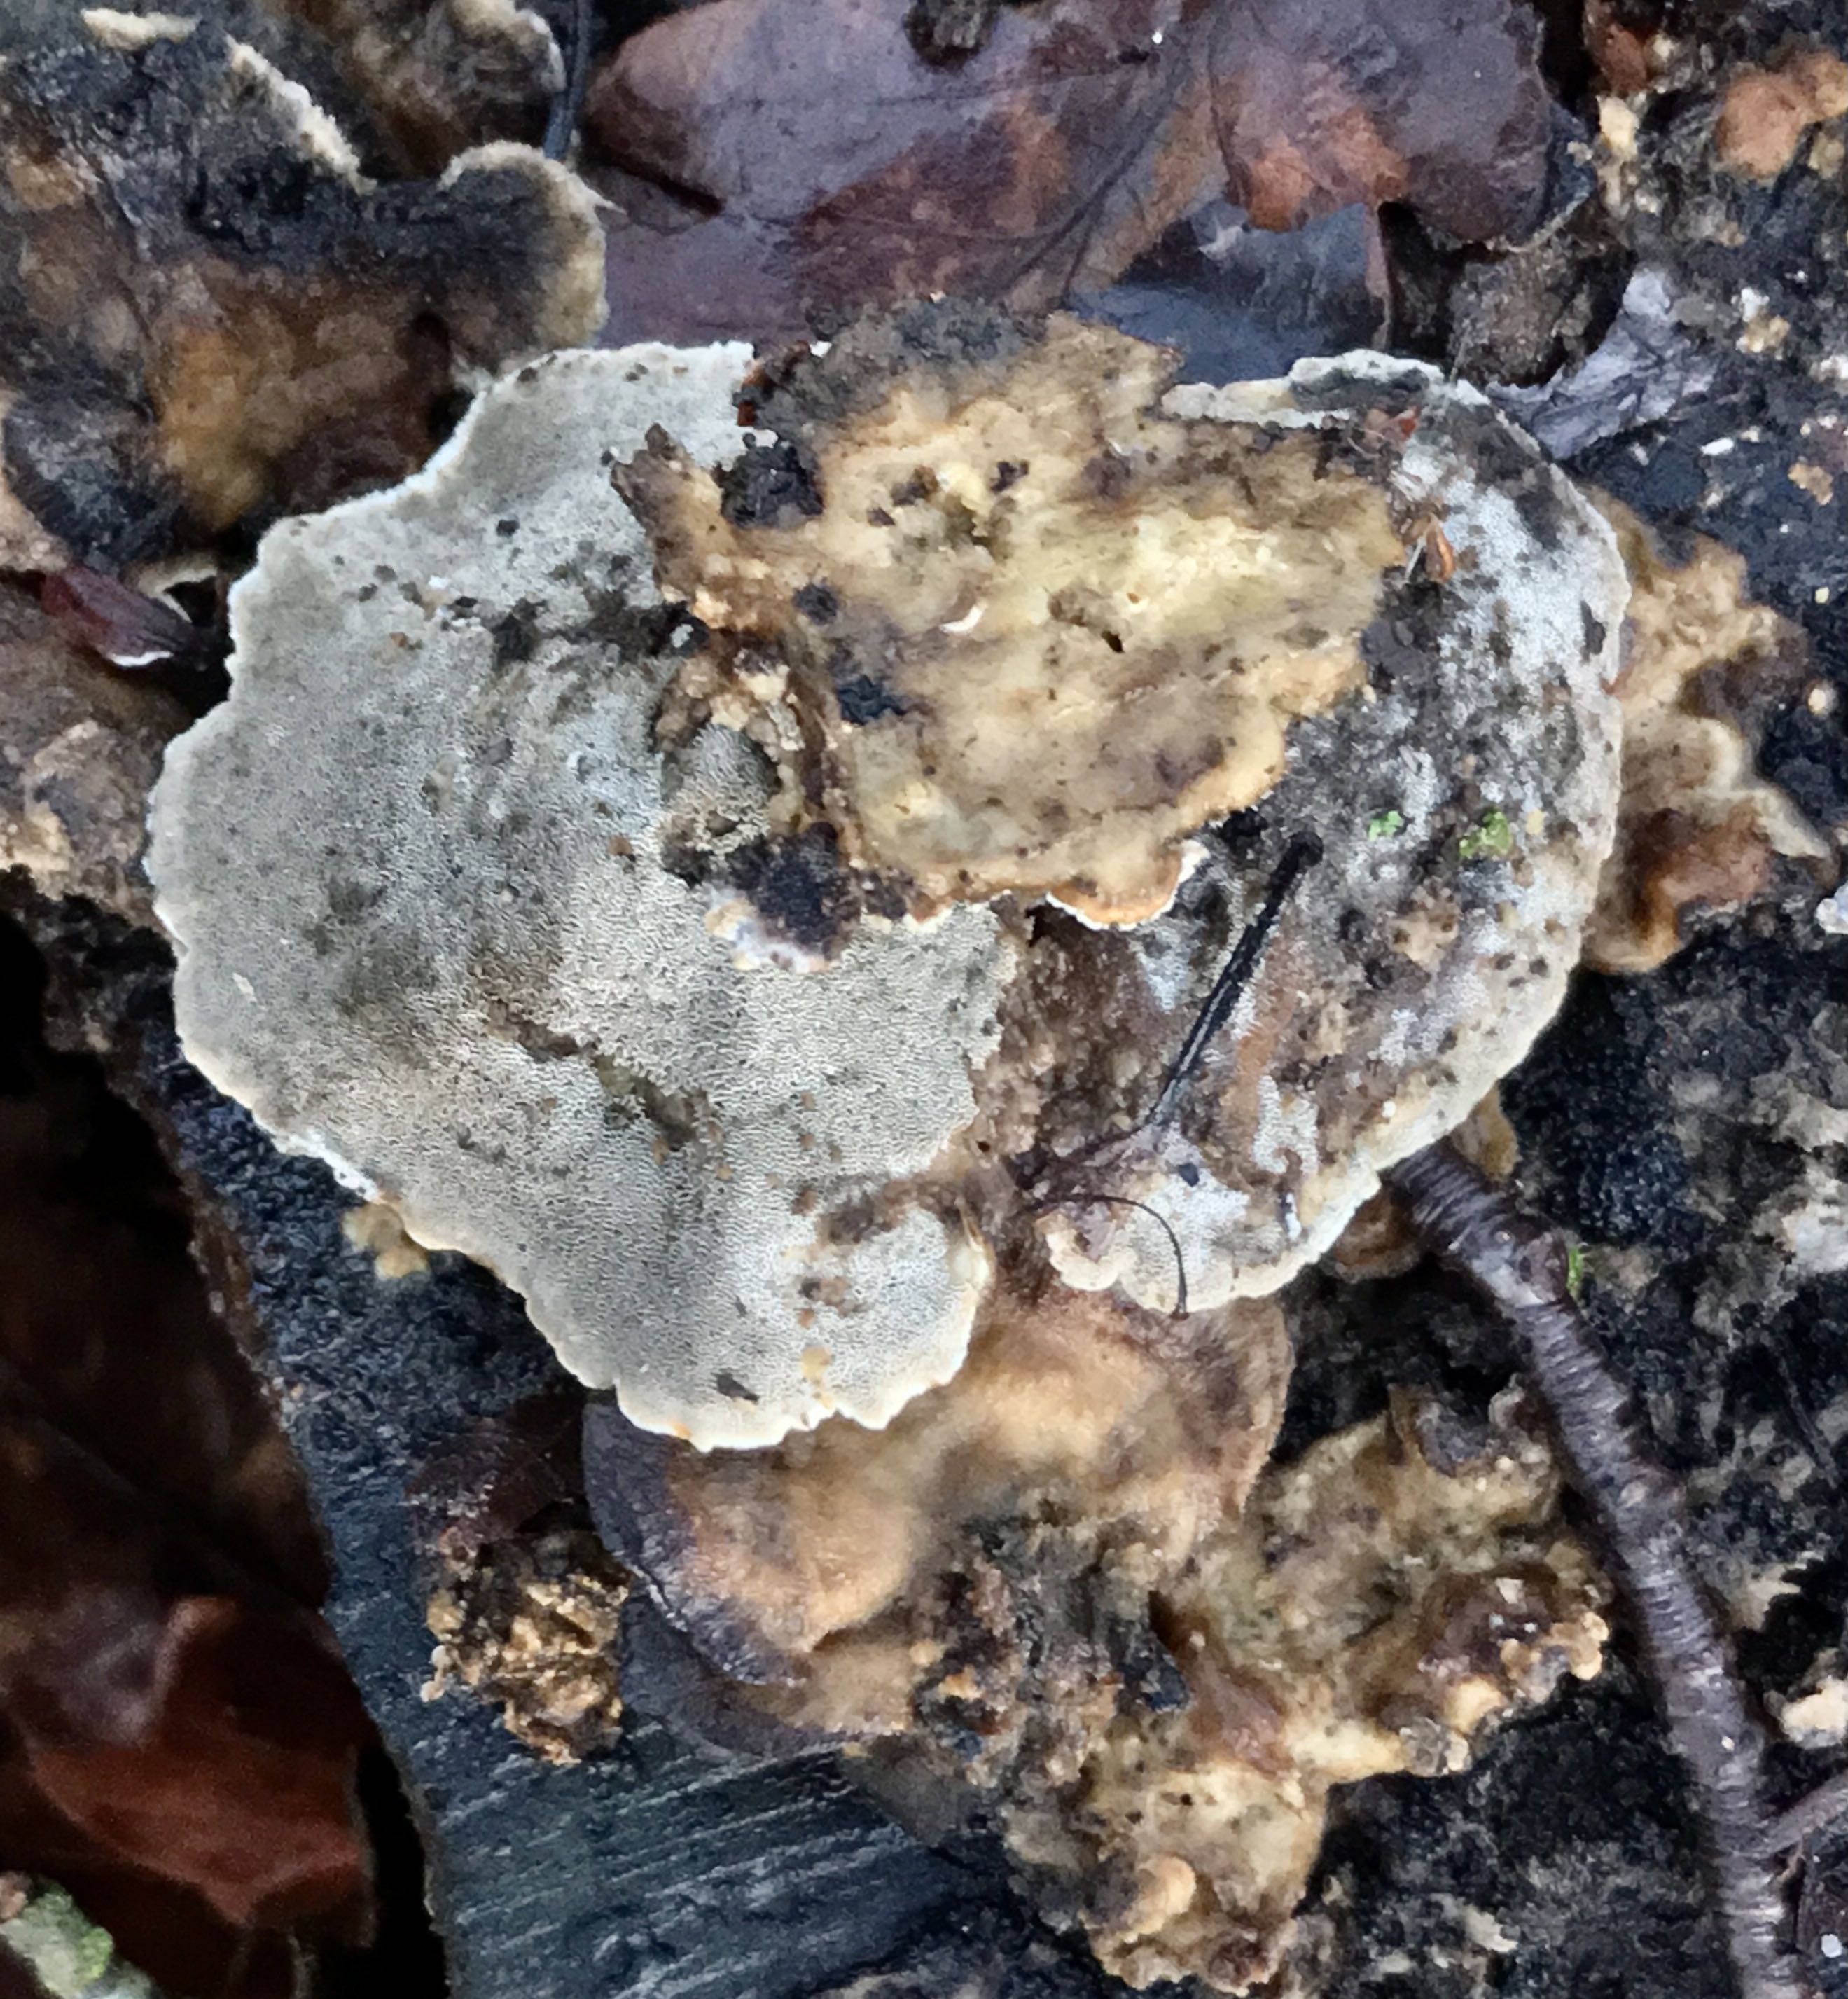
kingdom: Fungi
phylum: Basidiomycota
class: Agaricomycetes
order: Polyporales
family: Phanerochaetaceae
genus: Bjerkandera
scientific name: Bjerkandera adusta
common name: sveden sodporesvamp
